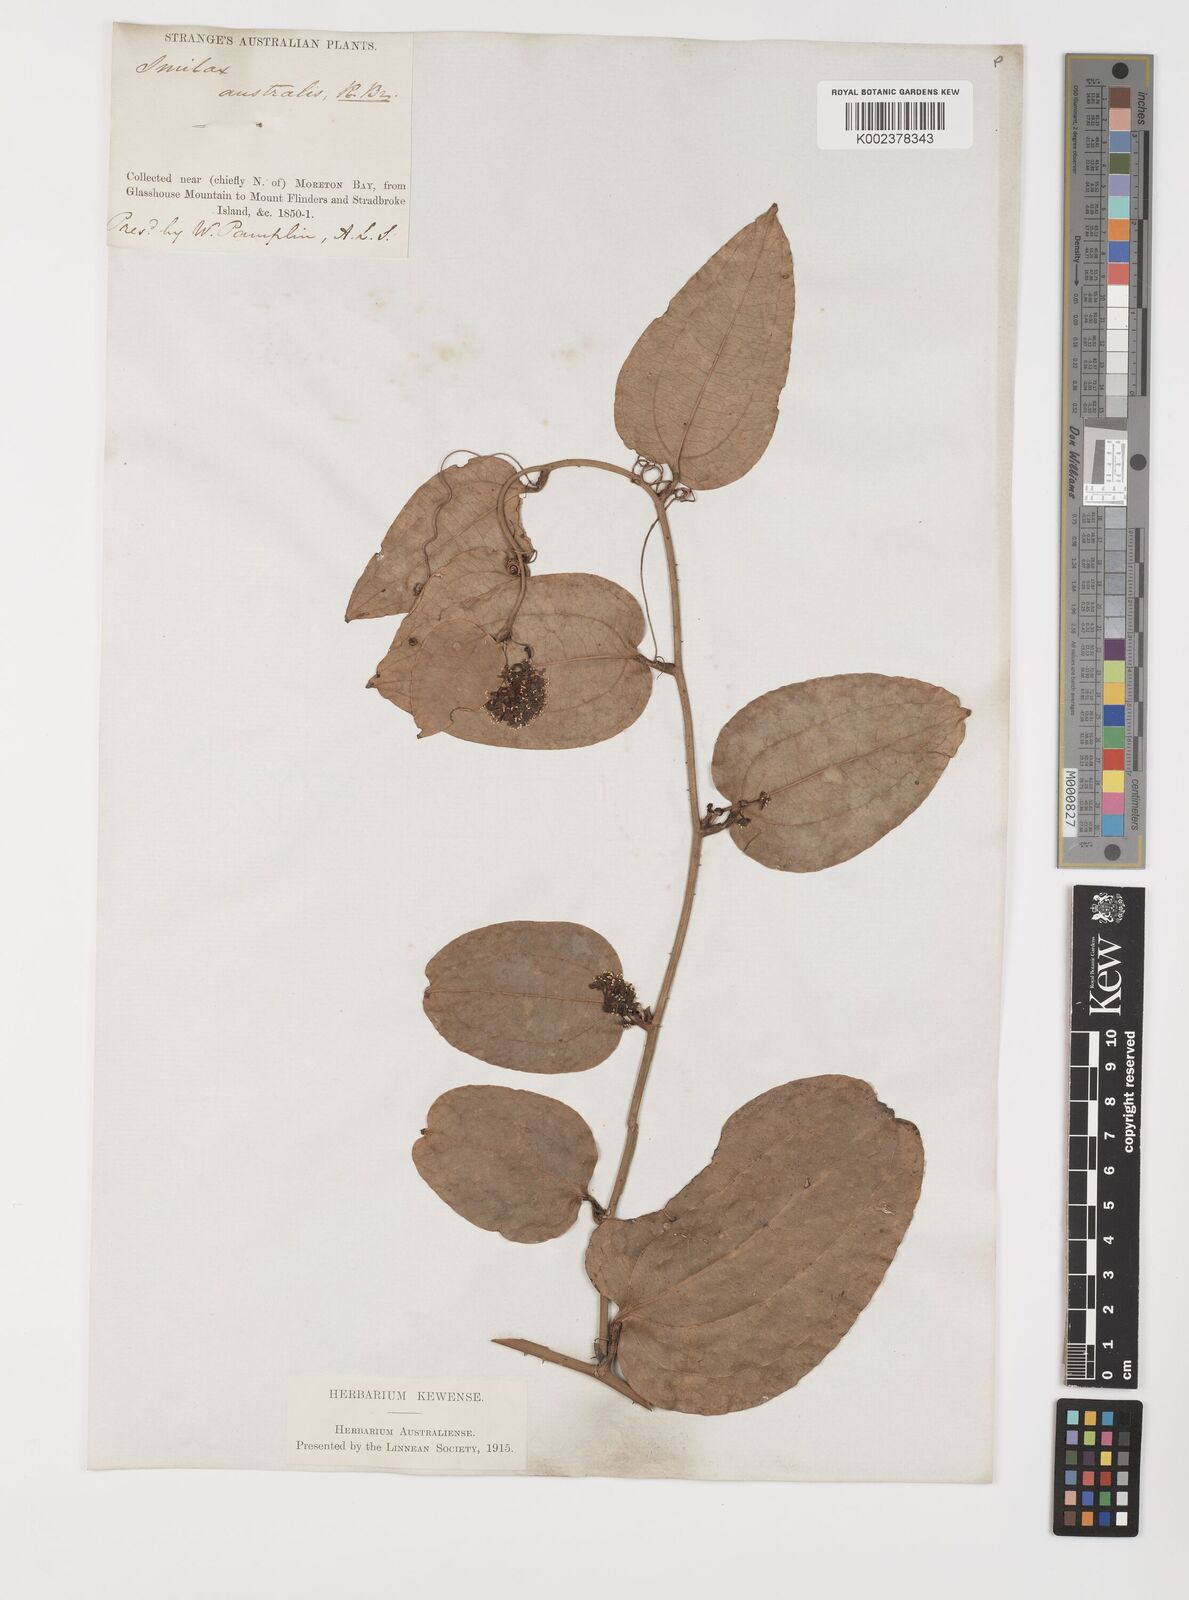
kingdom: Plantae
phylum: Tracheophyta
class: Liliopsida
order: Liliales
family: Smilacaceae
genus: Smilax
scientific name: Smilax australis
